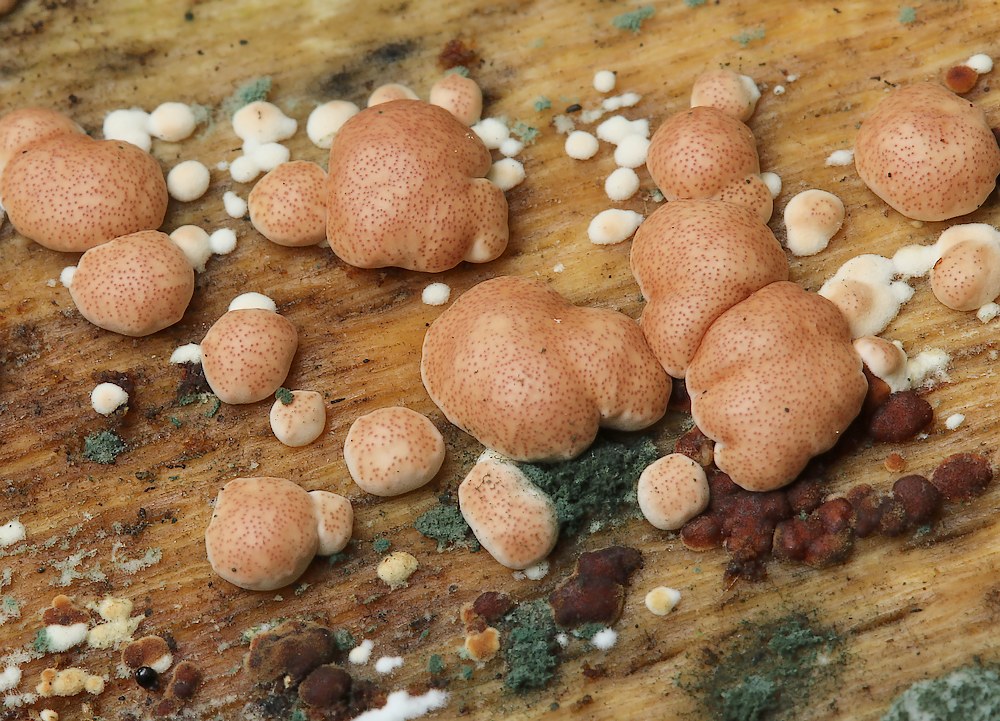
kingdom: Fungi
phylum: Ascomycota
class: Sordariomycetes
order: Hypocreales
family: Hypocreaceae
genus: Trichoderma
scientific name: Trichoderma europaeum
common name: rosabrun kødkerne
